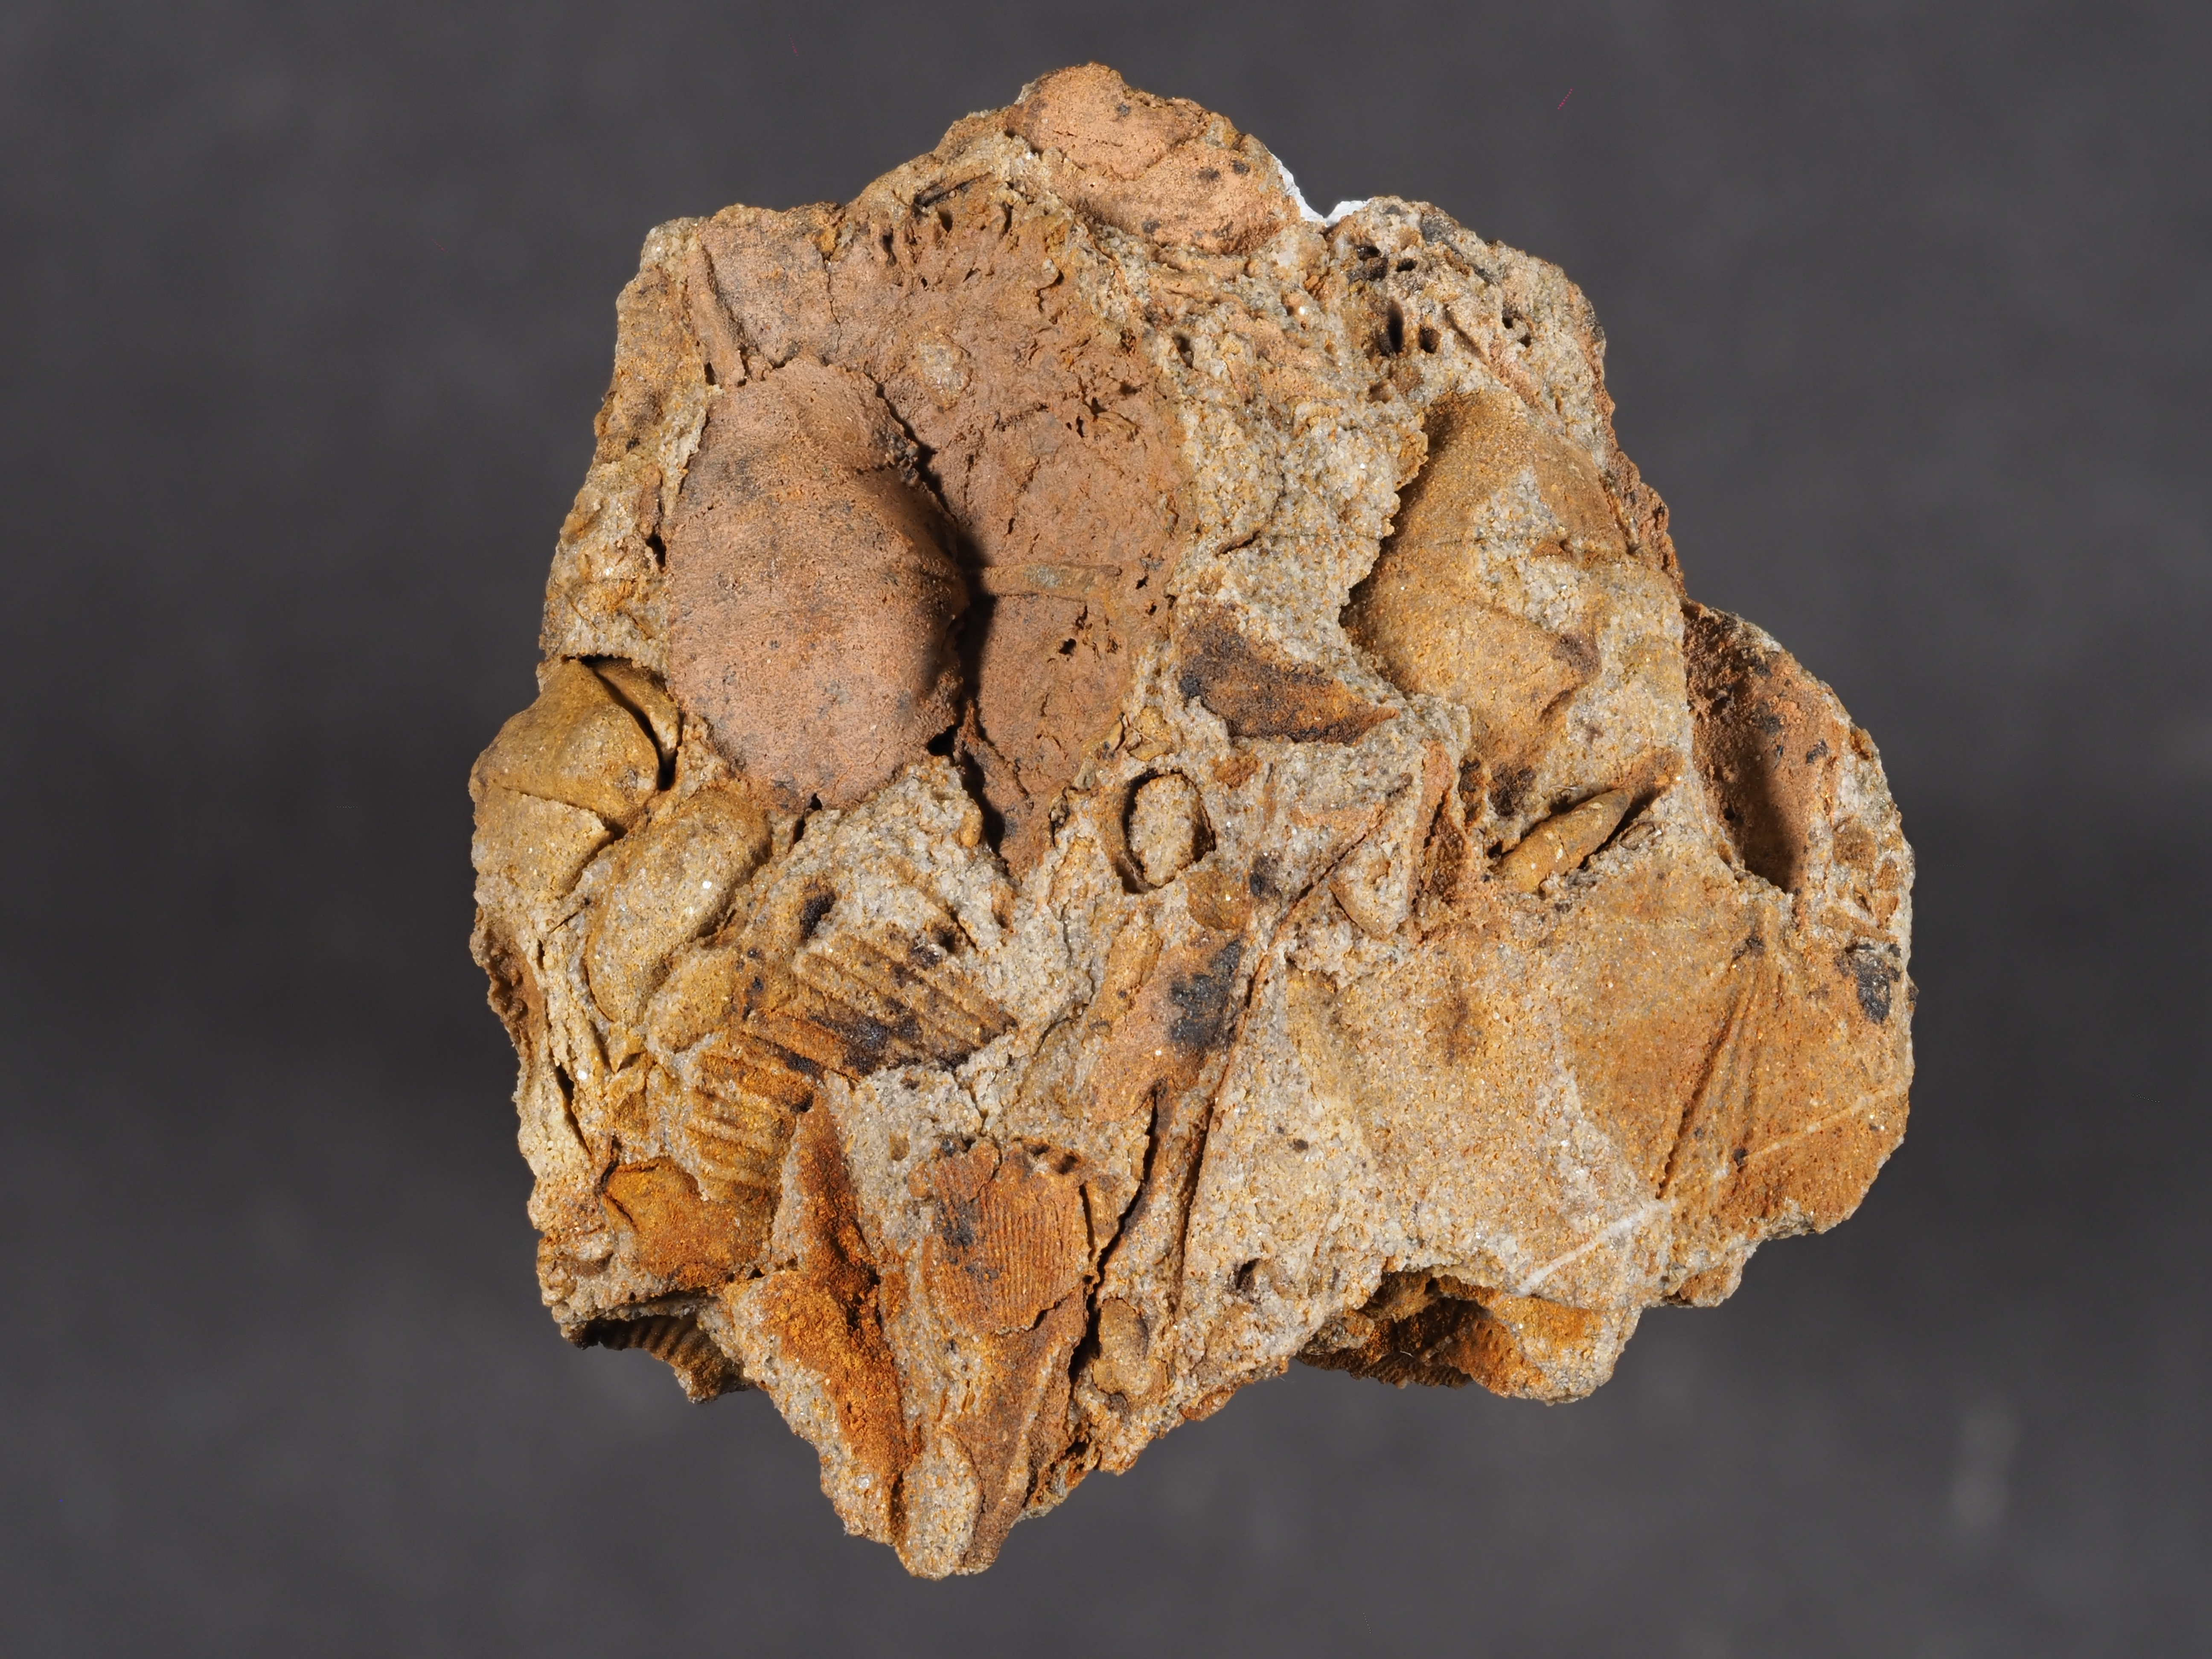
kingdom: Animalia
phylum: Arthropoda
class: Trilobita
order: Phacopida
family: Acastidae
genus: Acastava
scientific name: Acastava
